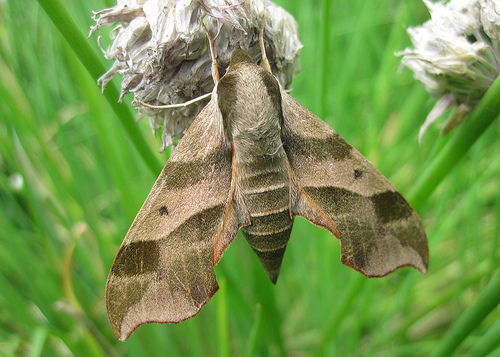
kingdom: Animalia
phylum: Arthropoda
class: Insecta
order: Lepidoptera
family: Sphingidae
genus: Darapsa
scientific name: Darapsa myron
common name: Hog sphinx
